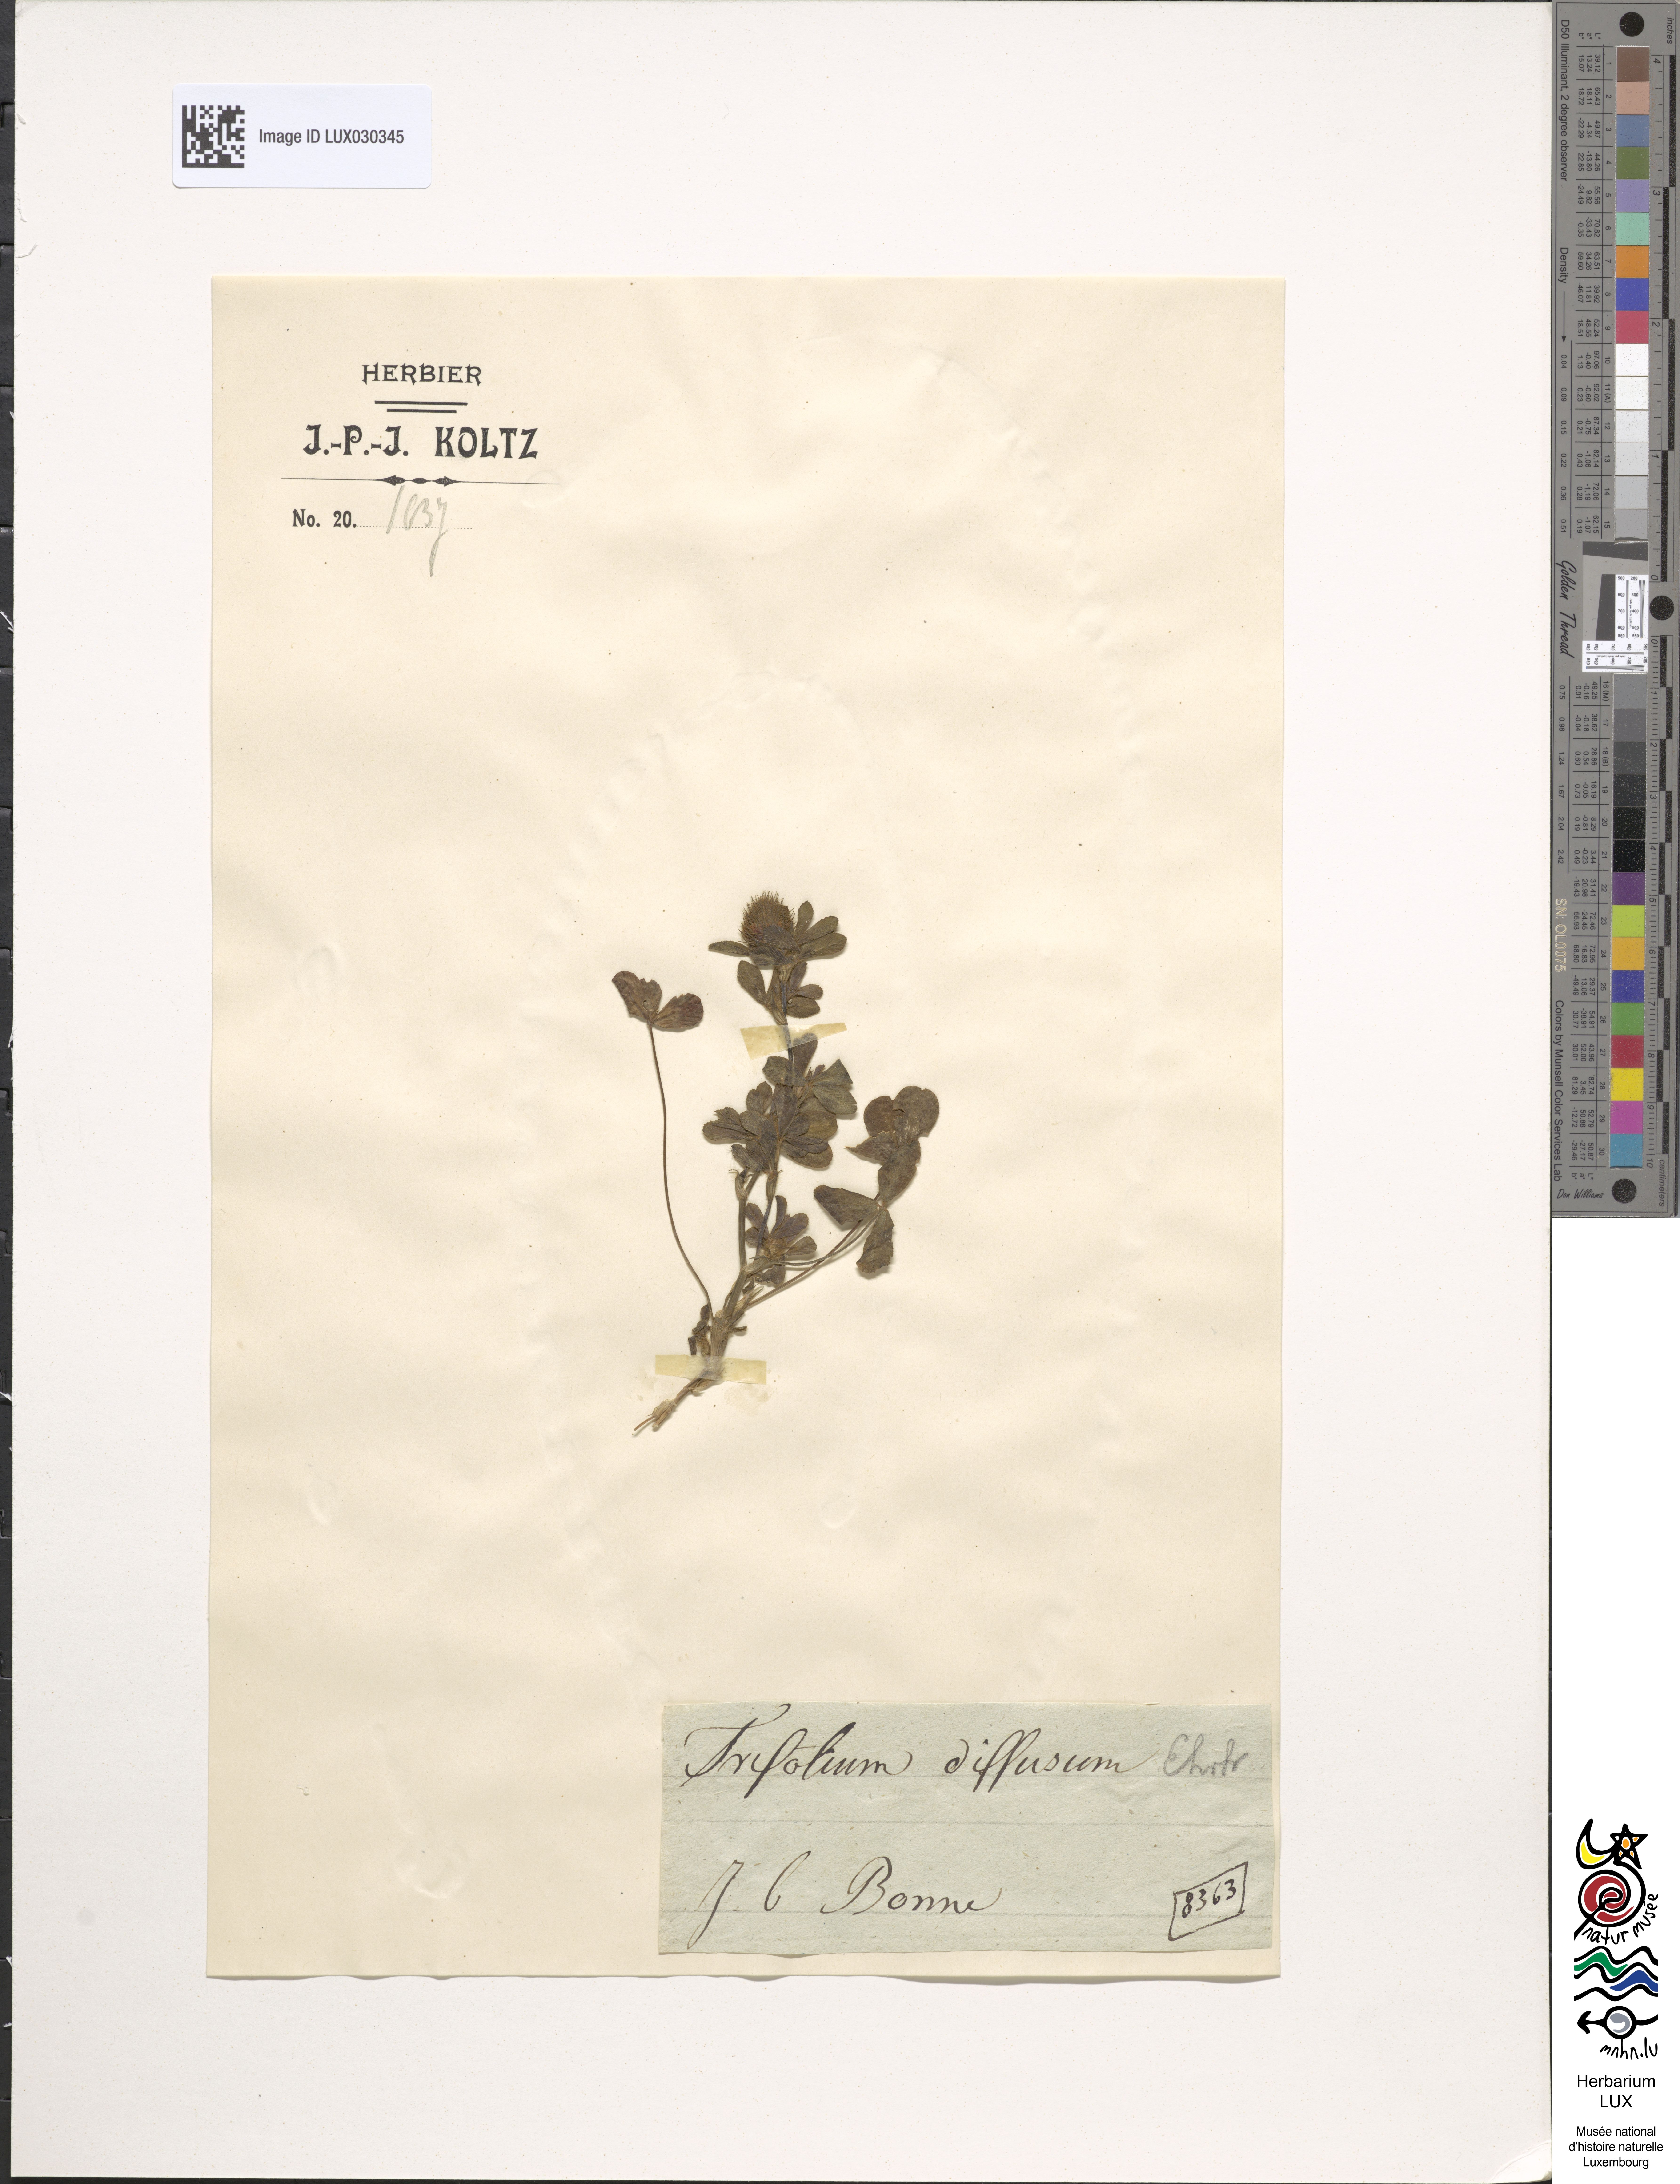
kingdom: Plantae
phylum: Tracheophyta
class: Magnoliopsida
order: Fabales
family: Fabaceae
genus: Trifolium
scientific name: Trifolium diffusum
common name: Diffuse clover
